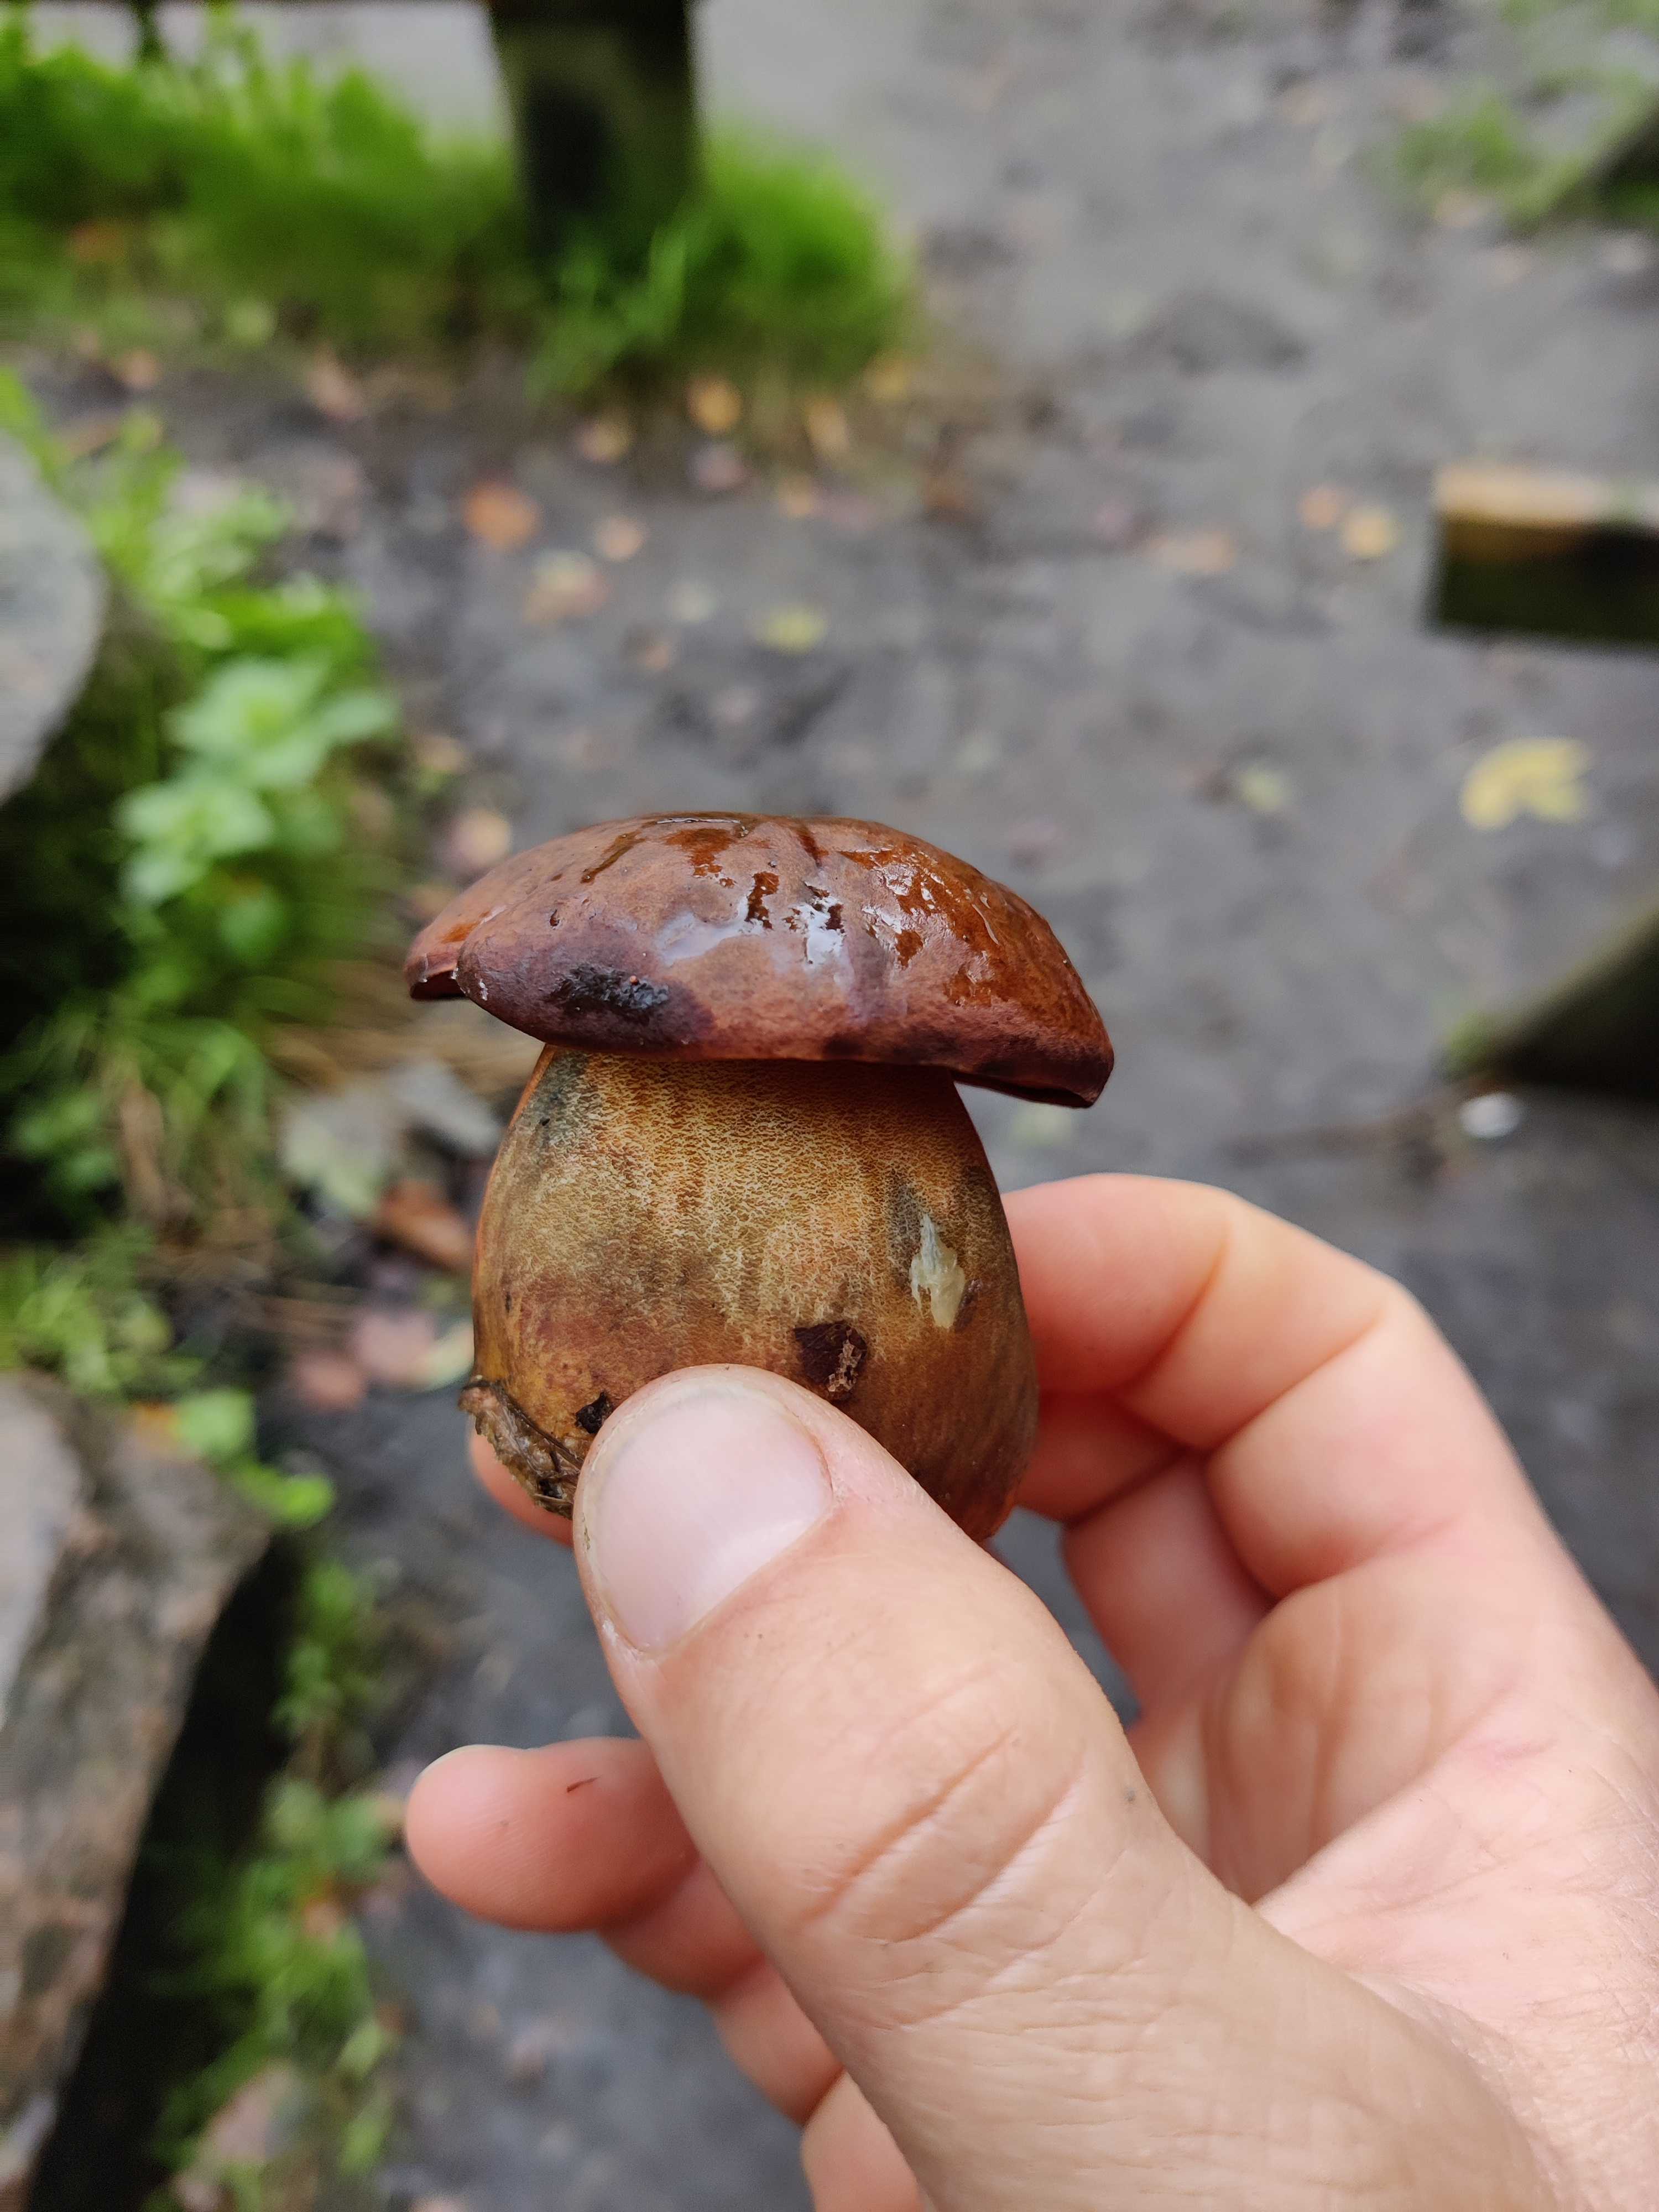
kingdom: Fungi
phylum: Basidiomycota
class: Agaricomycetes
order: Boletales
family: Boletaceae
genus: Neoboletus
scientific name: Neoboletus erythropus
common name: punktstokket indigorørhat
